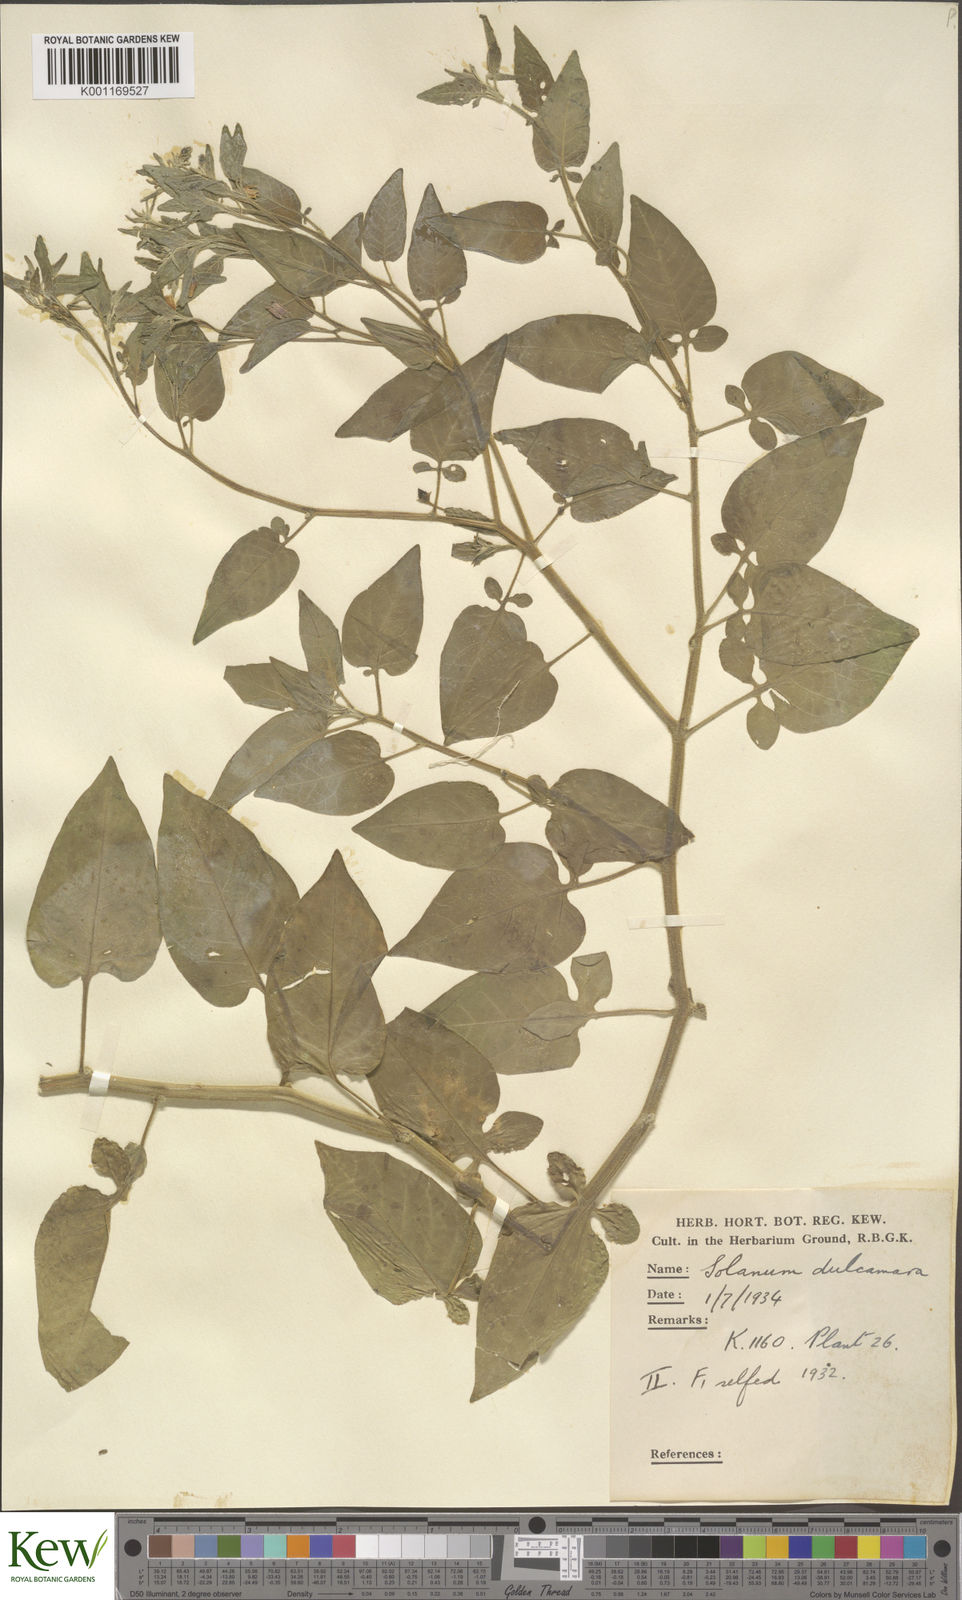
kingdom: Plantae
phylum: Tracheophyta
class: Magnoliopsida
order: Solanales
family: Solanaceae
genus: Solanum
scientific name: Solanum dulcamara
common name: Climbing nightshade
